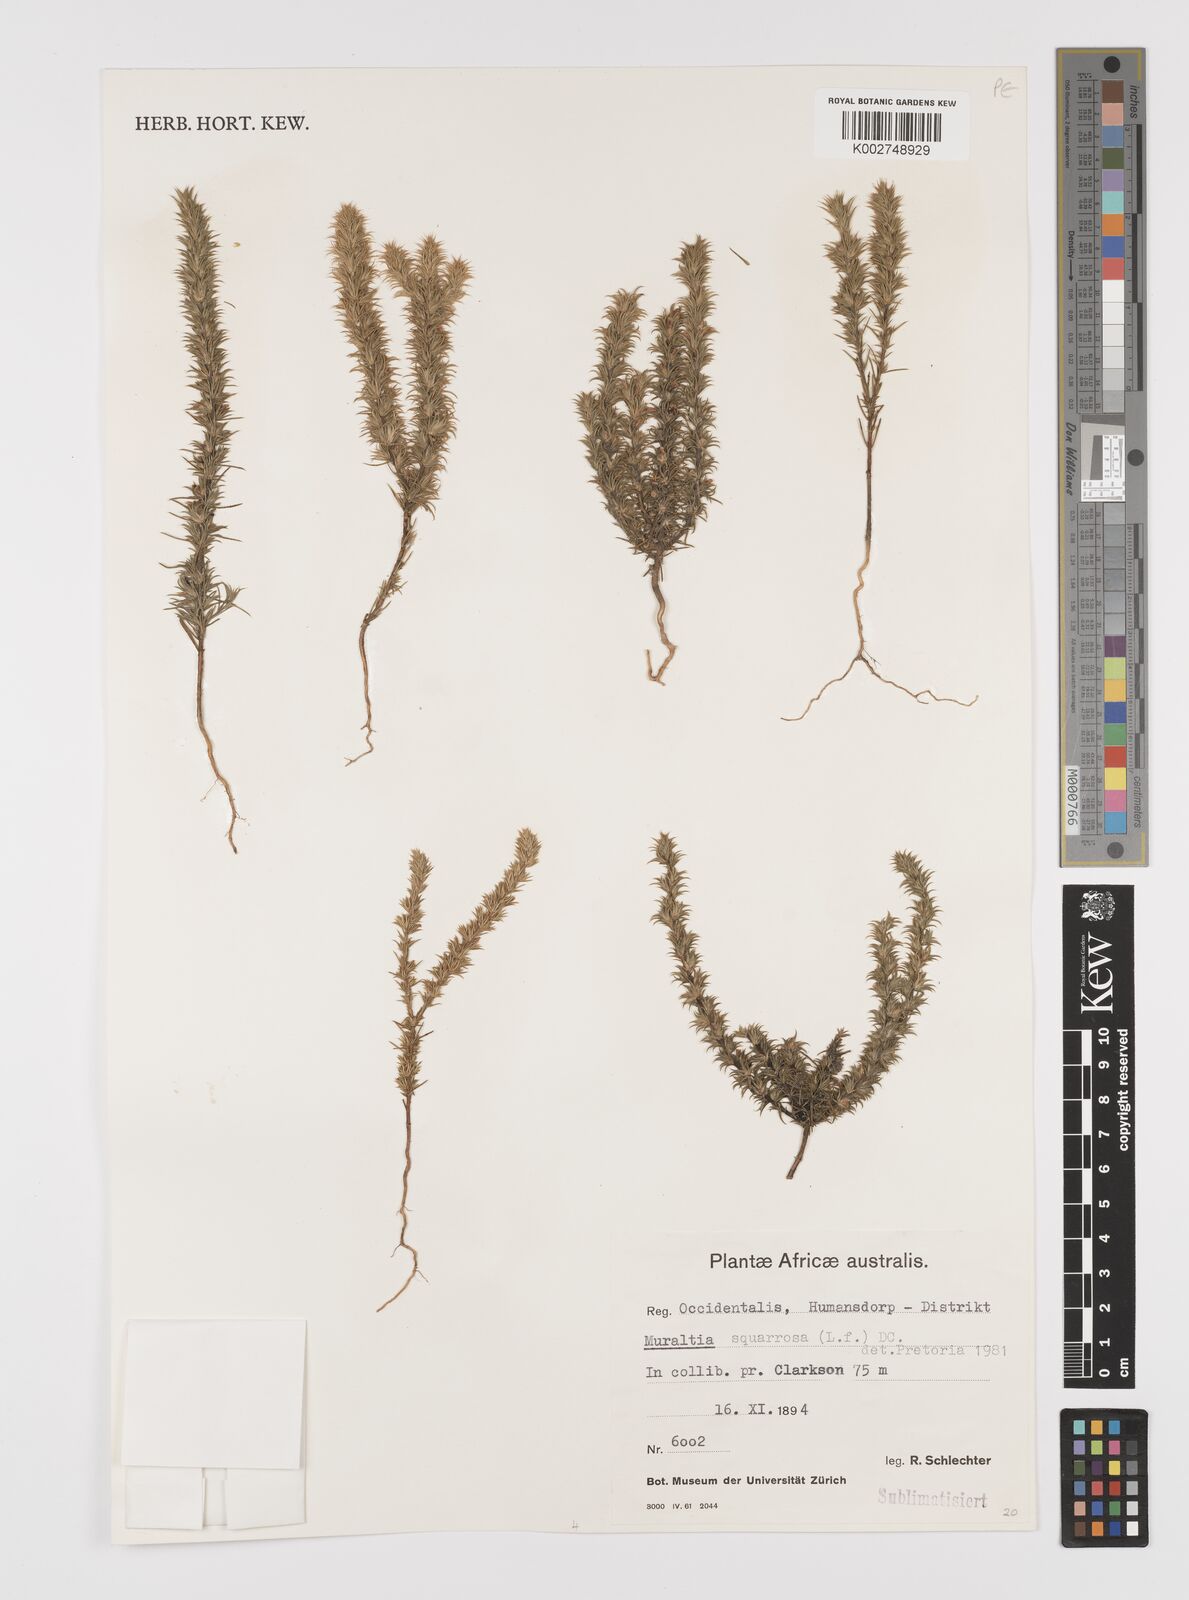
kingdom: Plantae
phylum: Tracheophyta
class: Magnoliopsida
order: Fabales
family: Polygalaceae
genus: Muraltia
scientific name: Muraltia squarrosa
